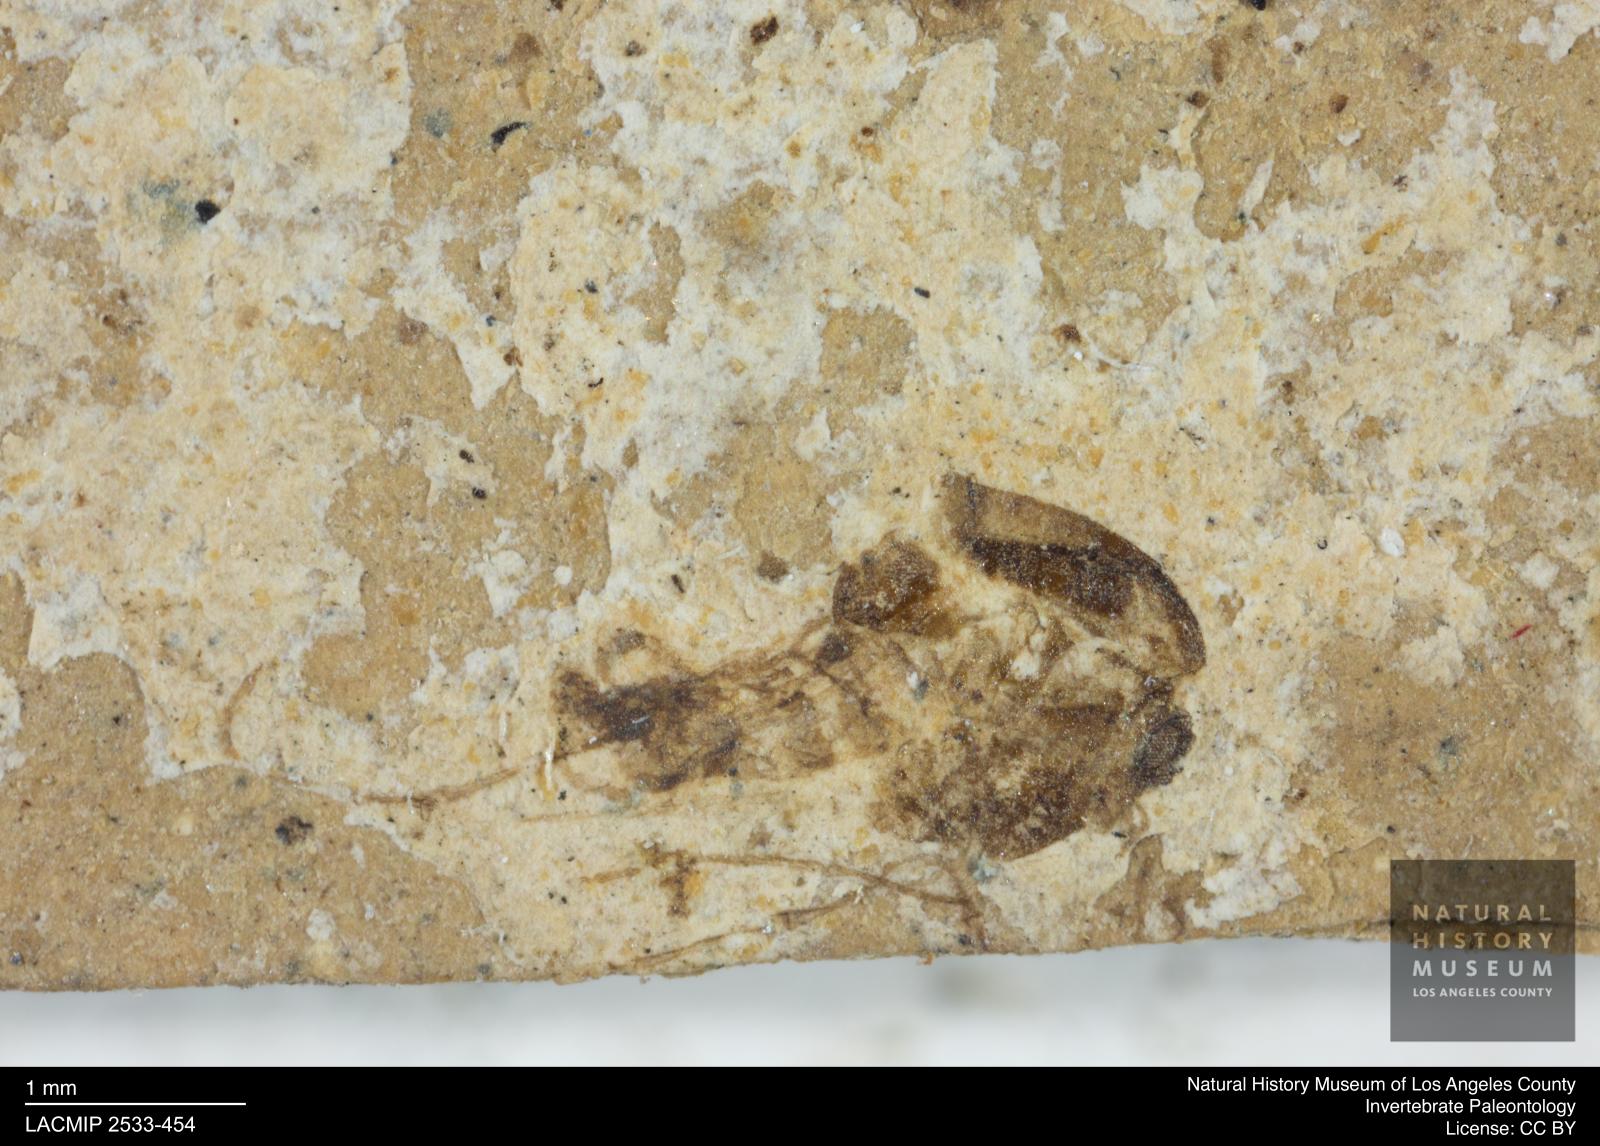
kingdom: Animalia
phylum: Arthropoda
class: Insecta
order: Diptera
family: Chironomidae
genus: Tanypus
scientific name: Tanypus thienemanni
